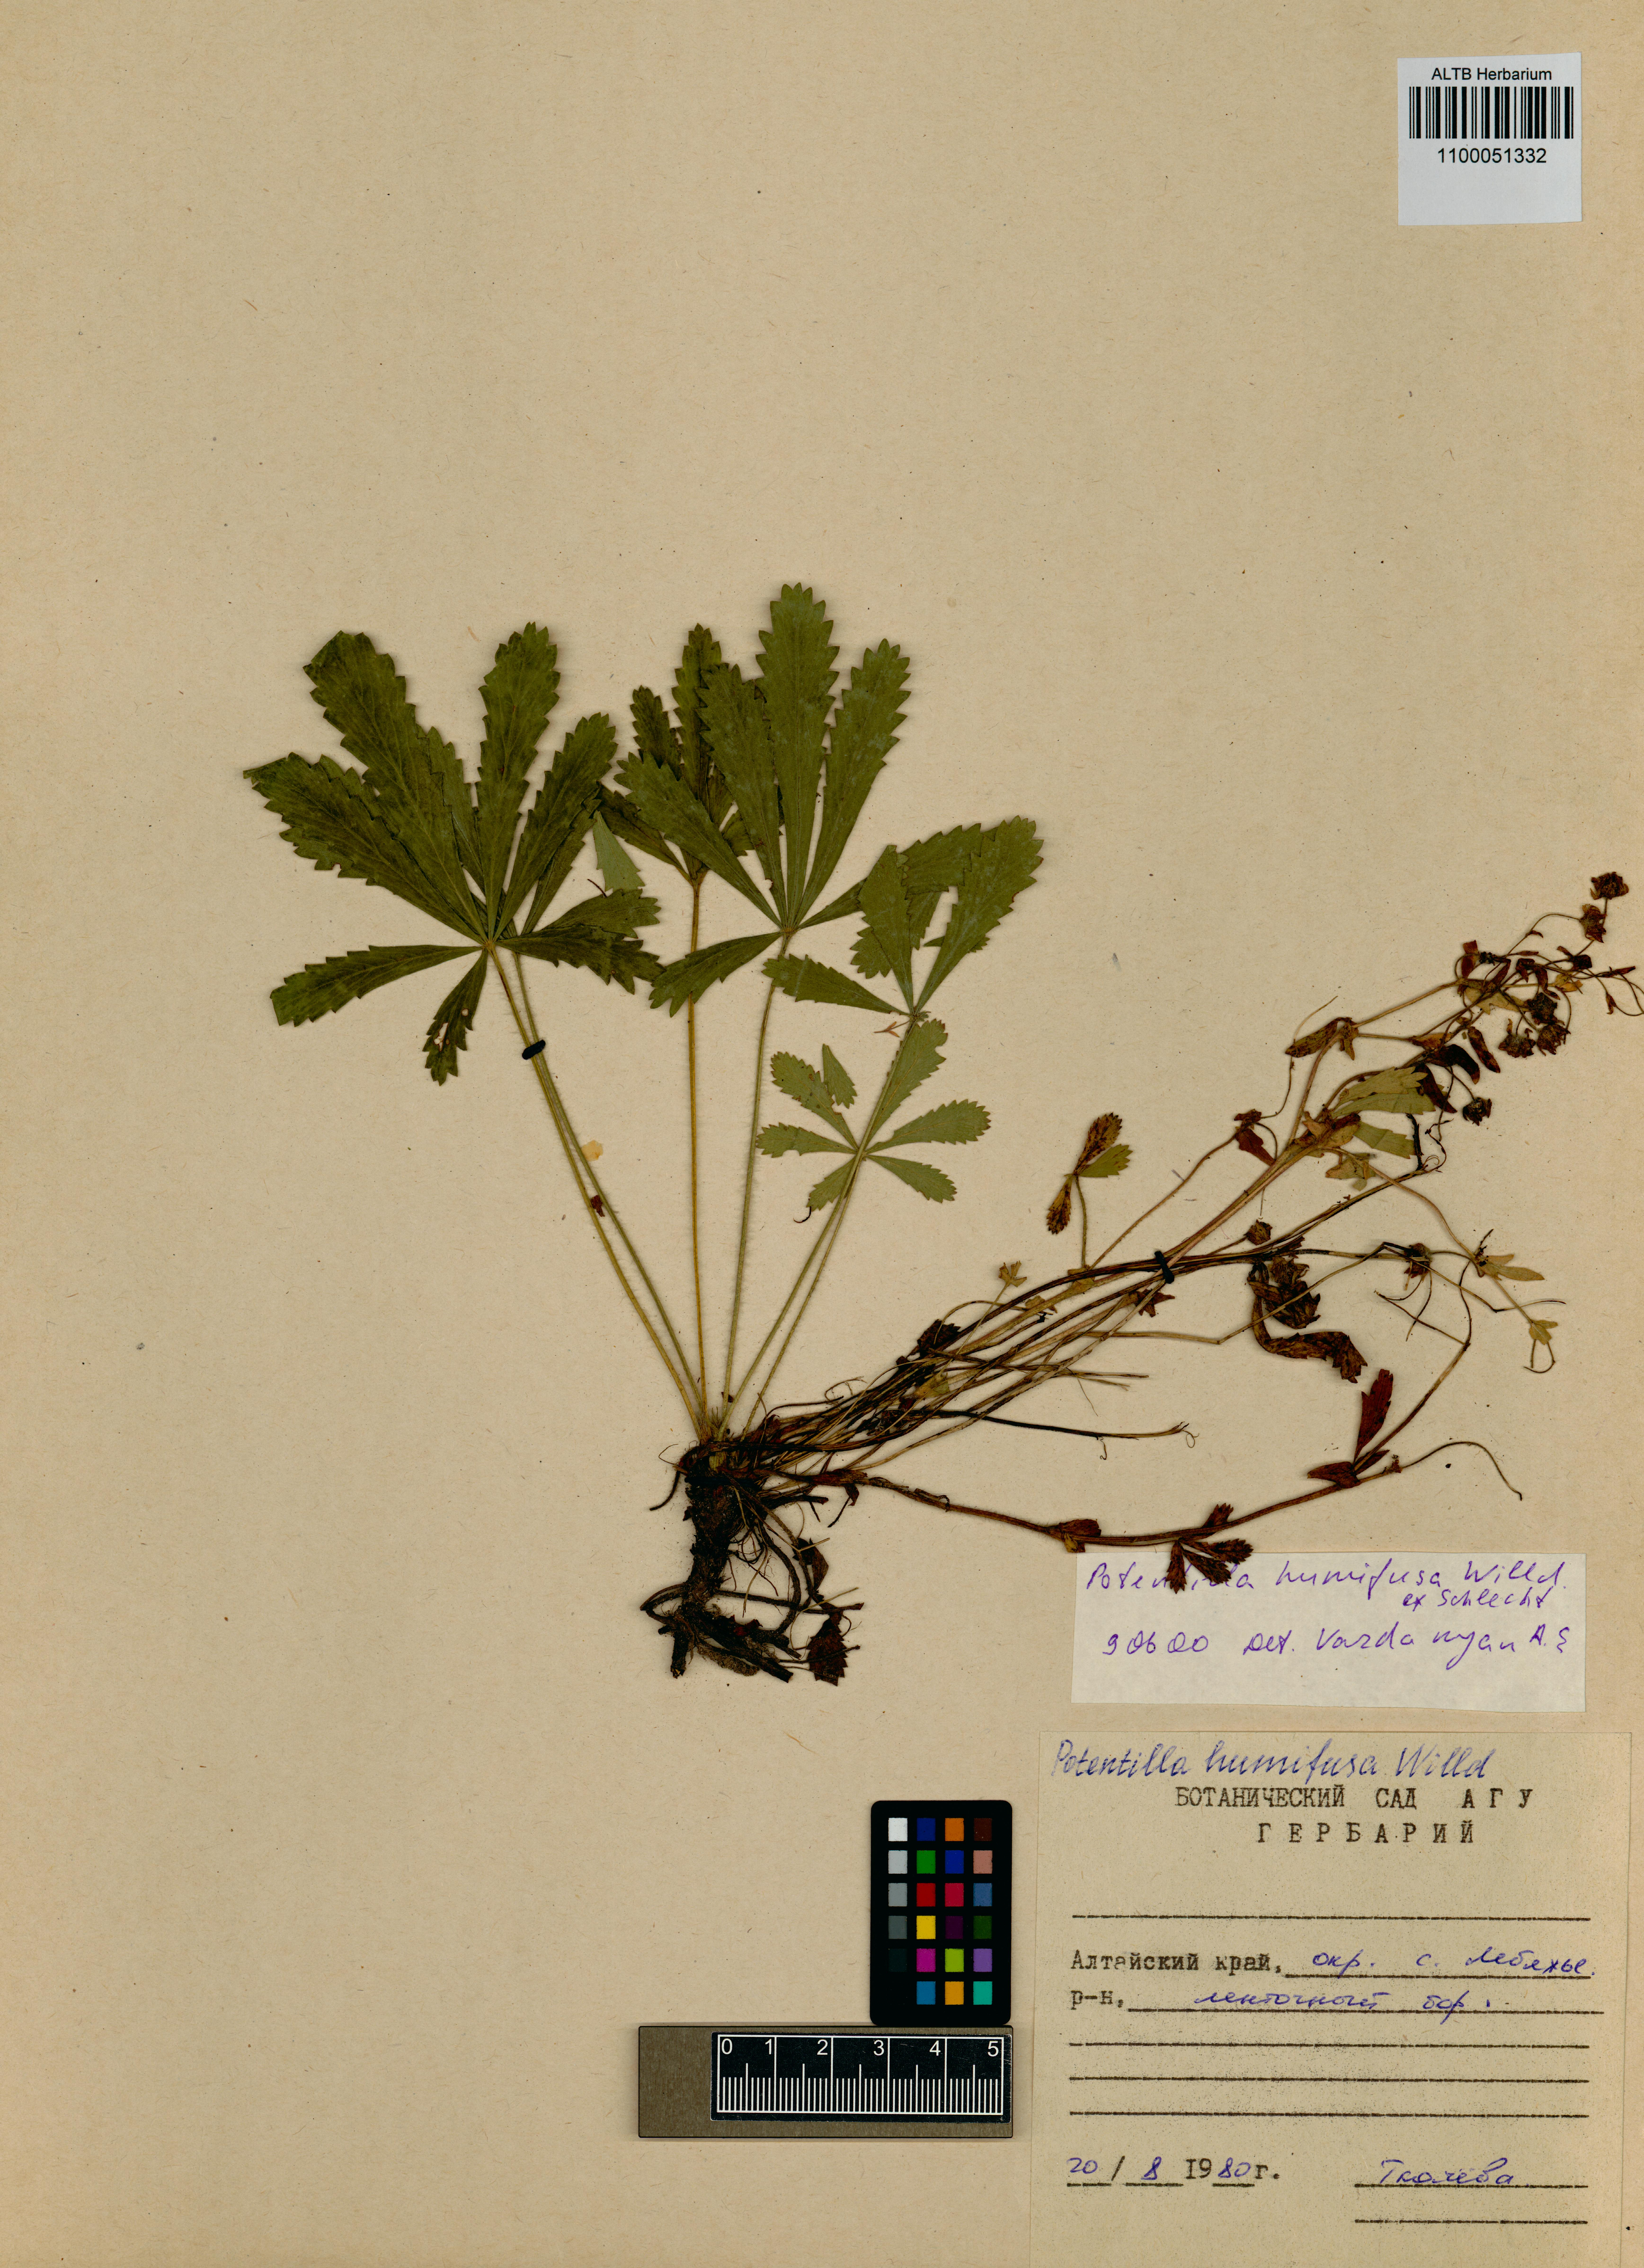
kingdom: Plantae
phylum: Tracheophyta
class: Magnoliopsida
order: Rosales
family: Rosaceae
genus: Potentilla
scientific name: Potentilla humifusa
